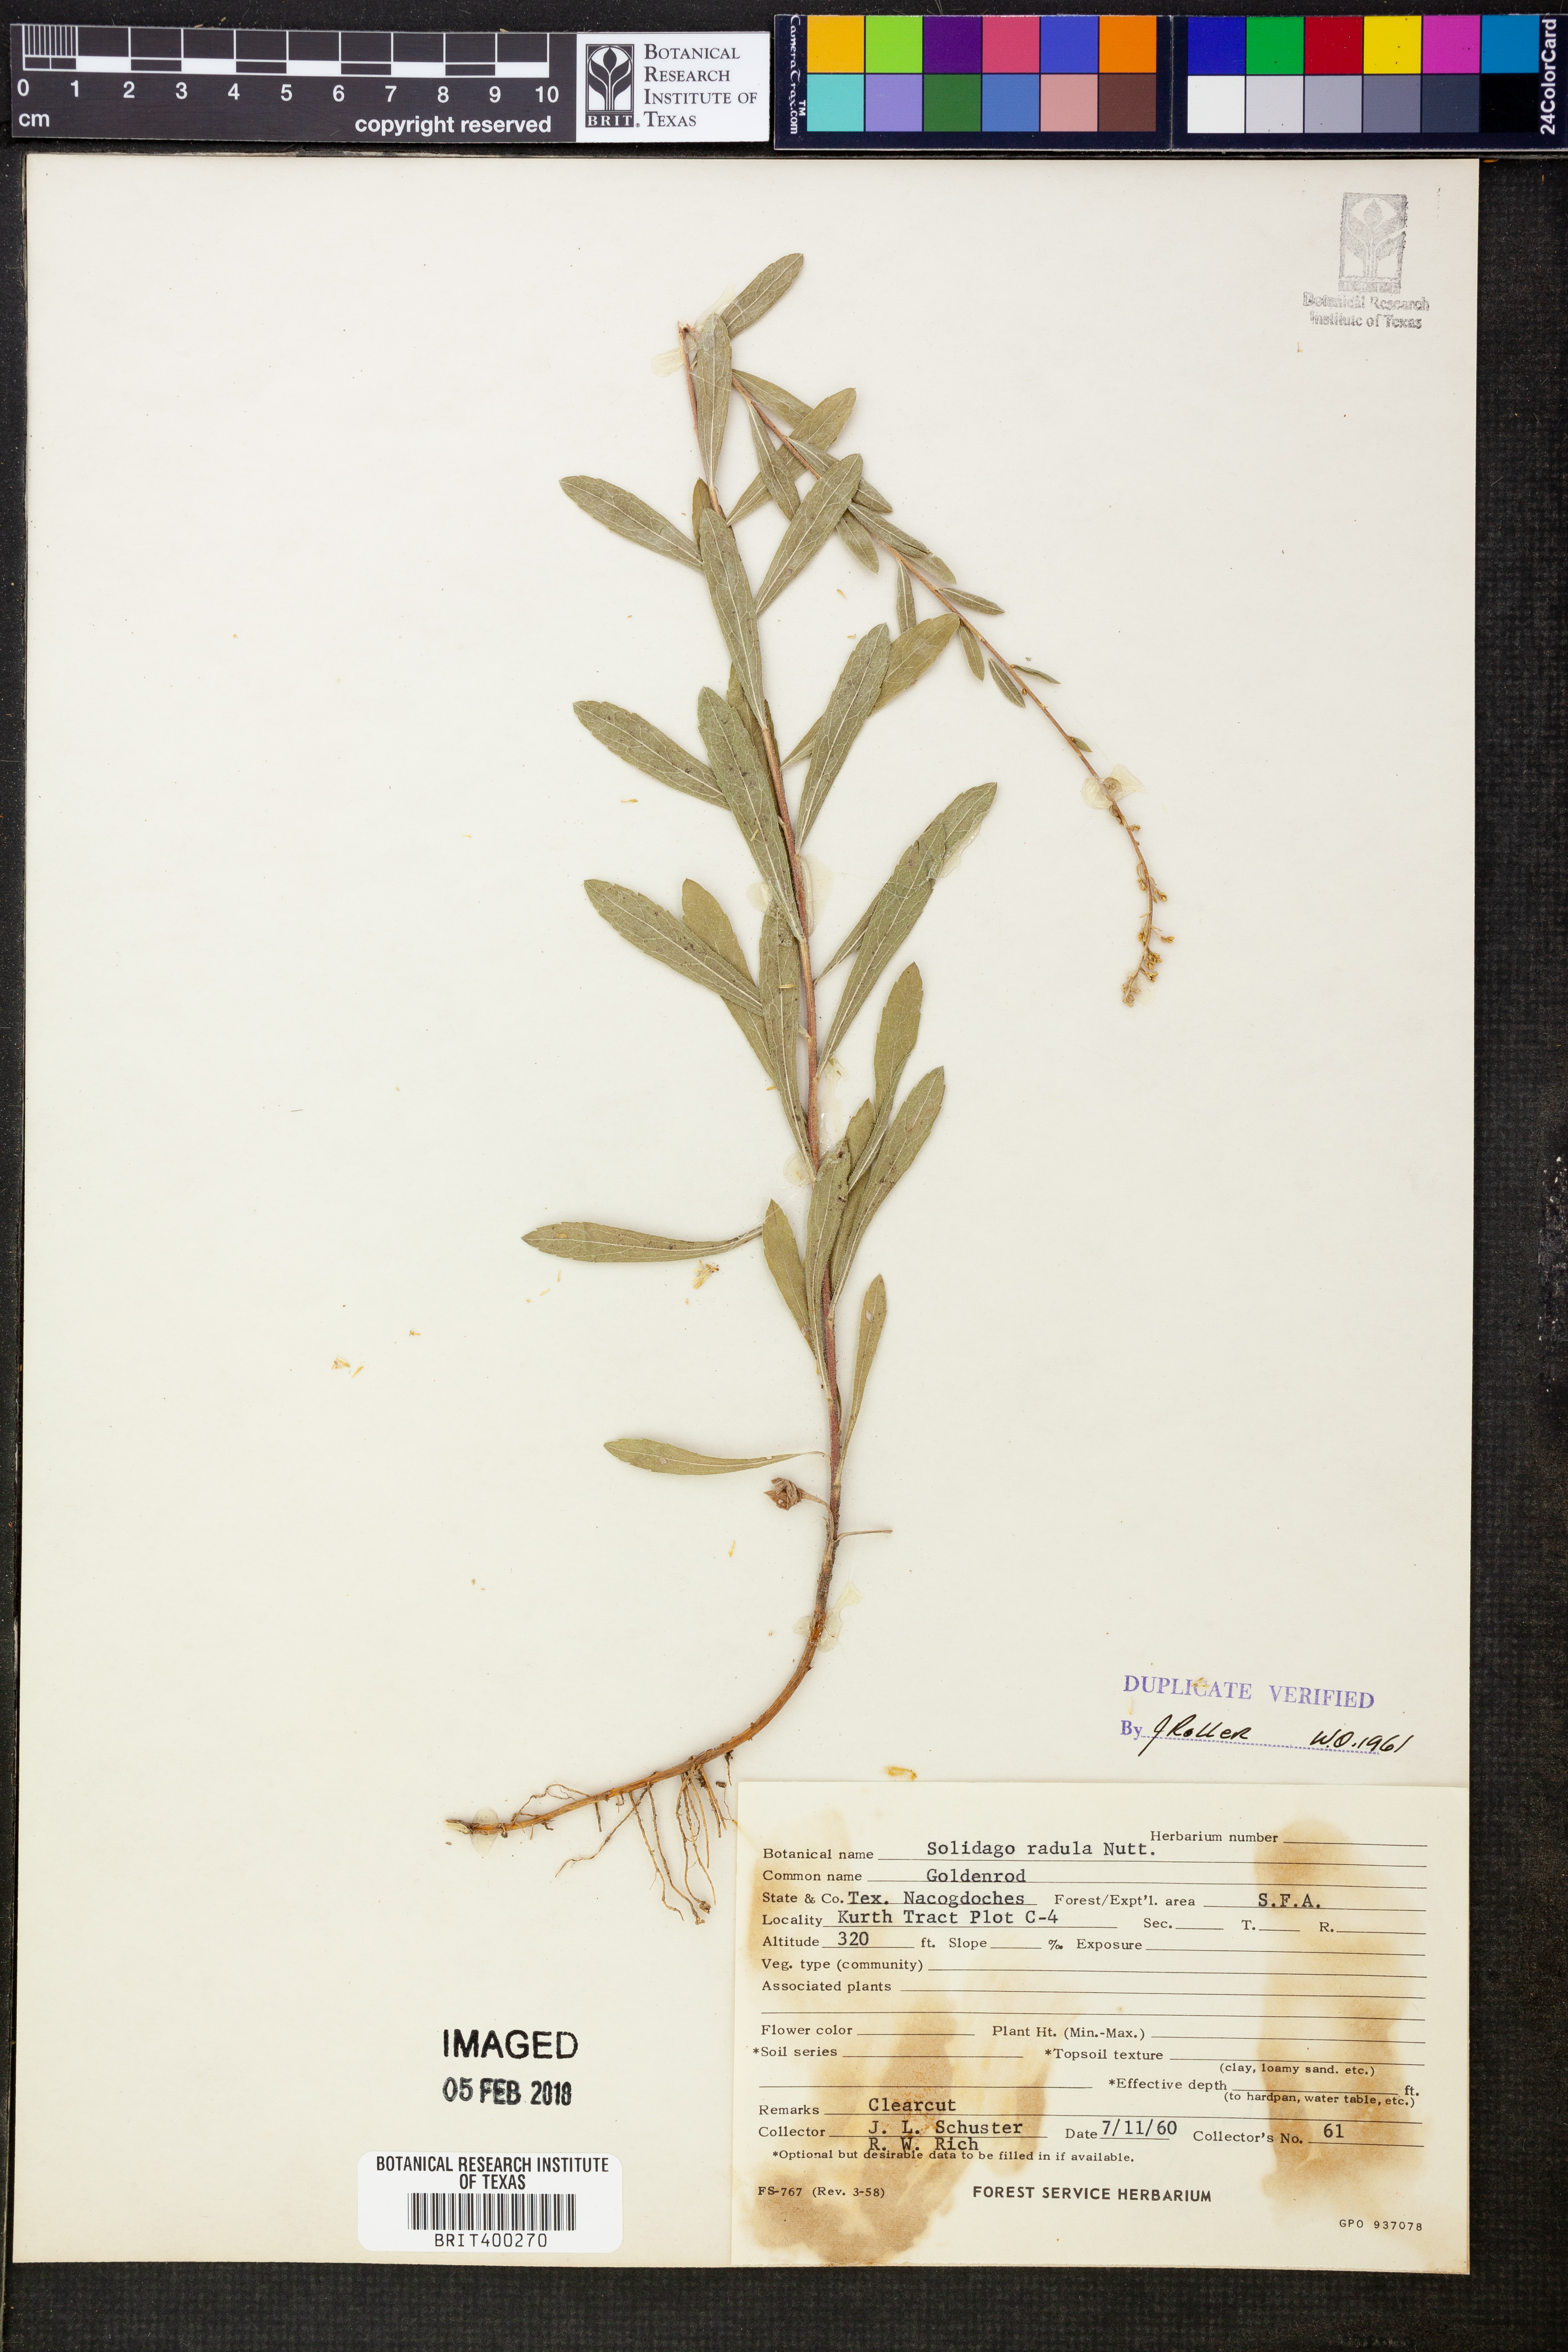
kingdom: Plantae
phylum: Tracheophyta
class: Magnoliopsida
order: Asterales
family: Asteraceae
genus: Solidago
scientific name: Solidago radula
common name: Western rough goldenrod
